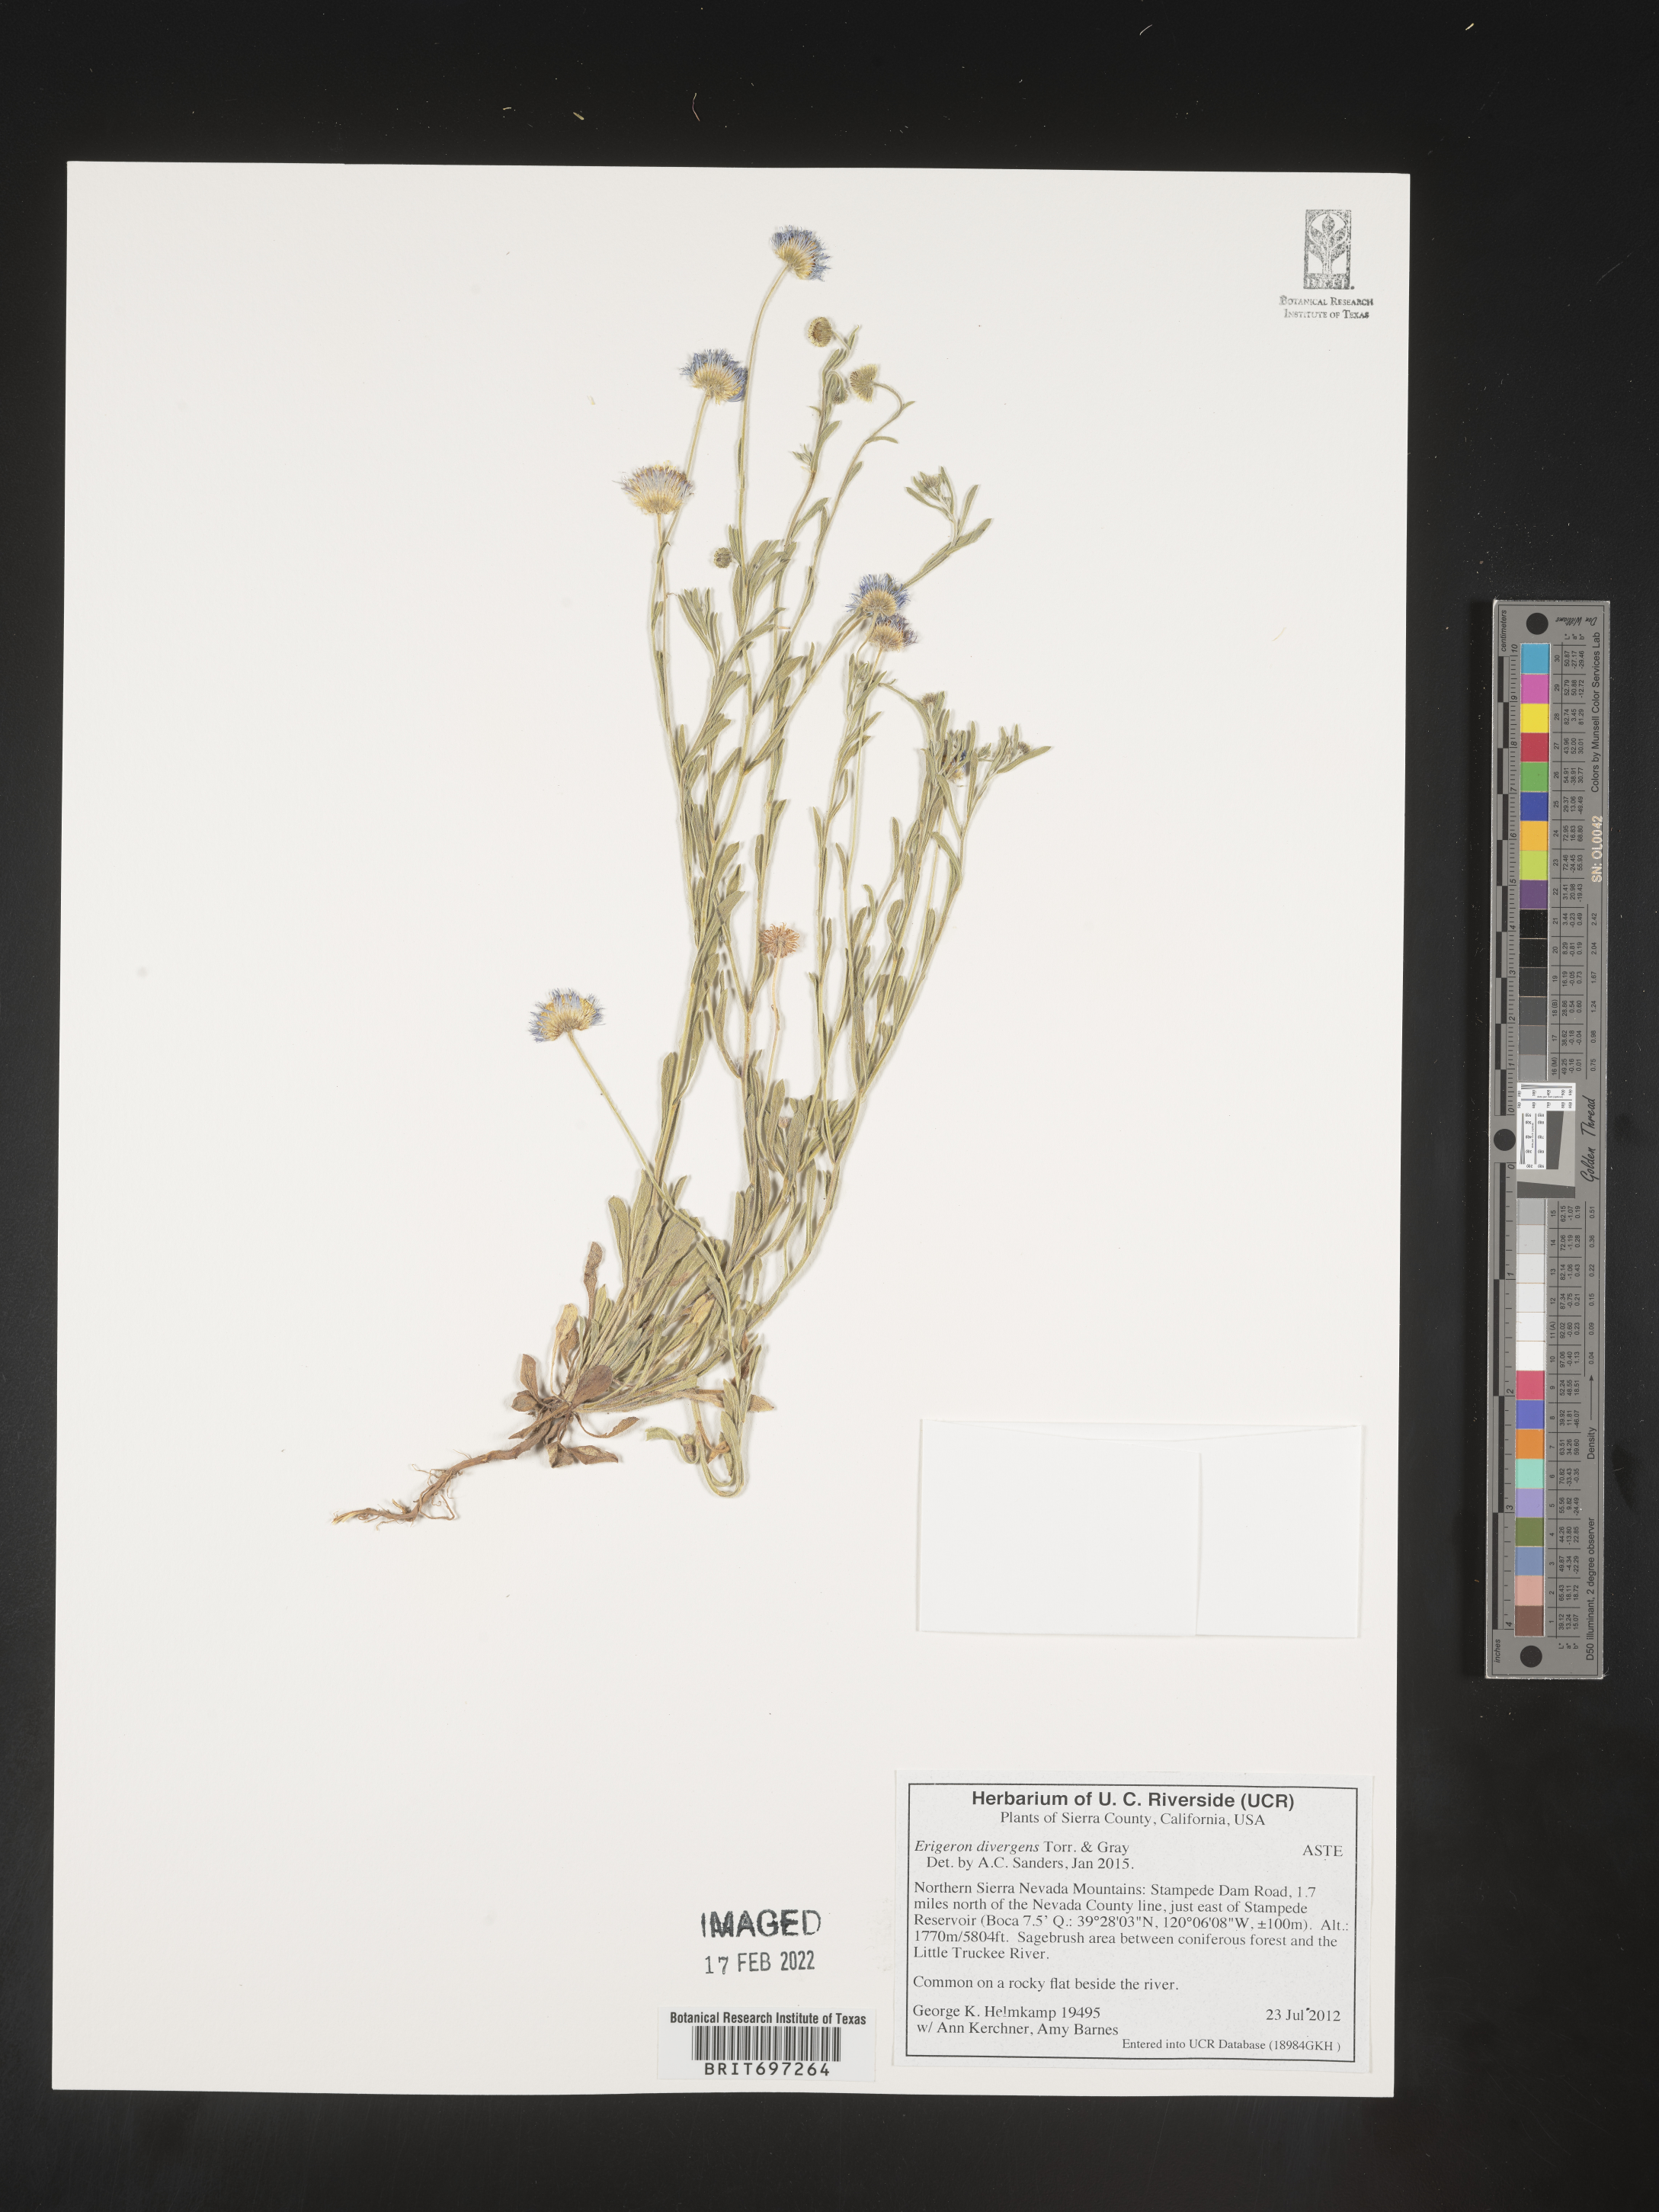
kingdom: Plantae
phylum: Tracheophyta
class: Magnoliopsida
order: Asterales
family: Asteraceae
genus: Erigeron
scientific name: Erigeron divergens
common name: Diffuse fleabane
